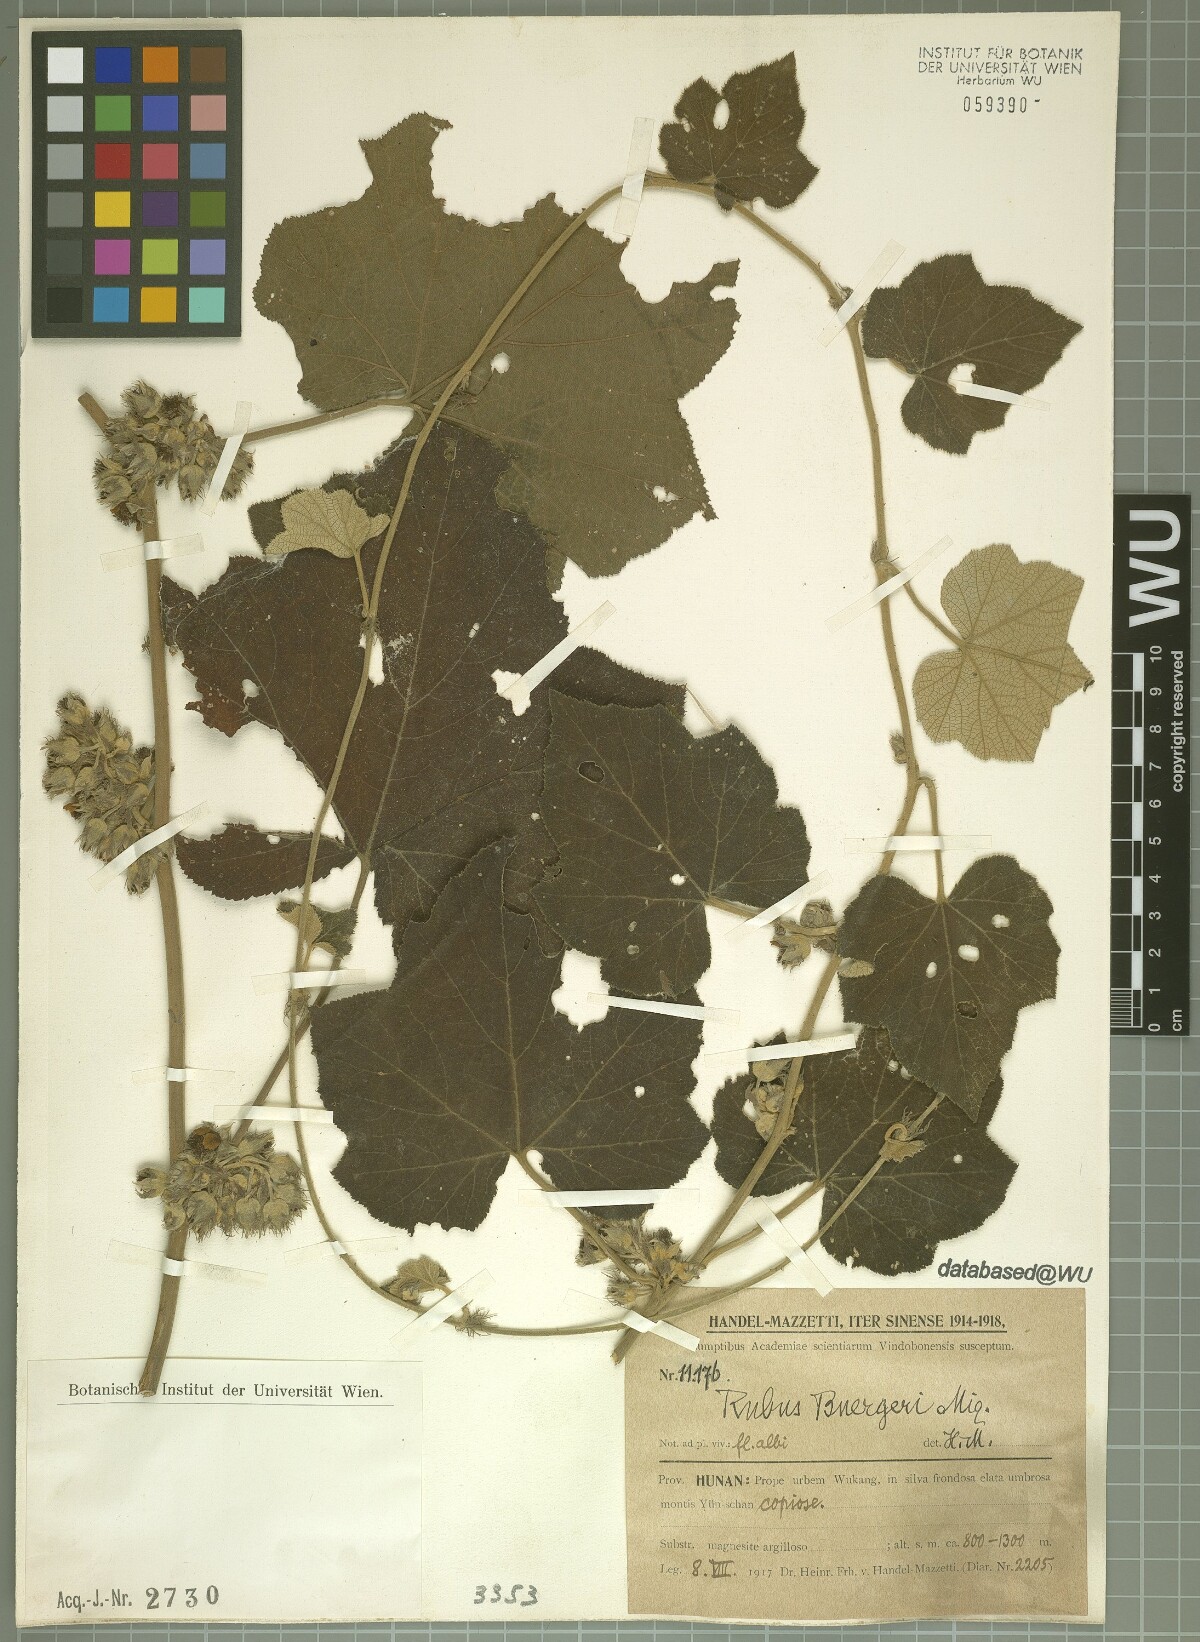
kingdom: Plantae
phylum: Tracheophyta
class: Magnoliopsida
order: Rosales
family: Rosaceae
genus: Rubus
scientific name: Rubus buergeri
